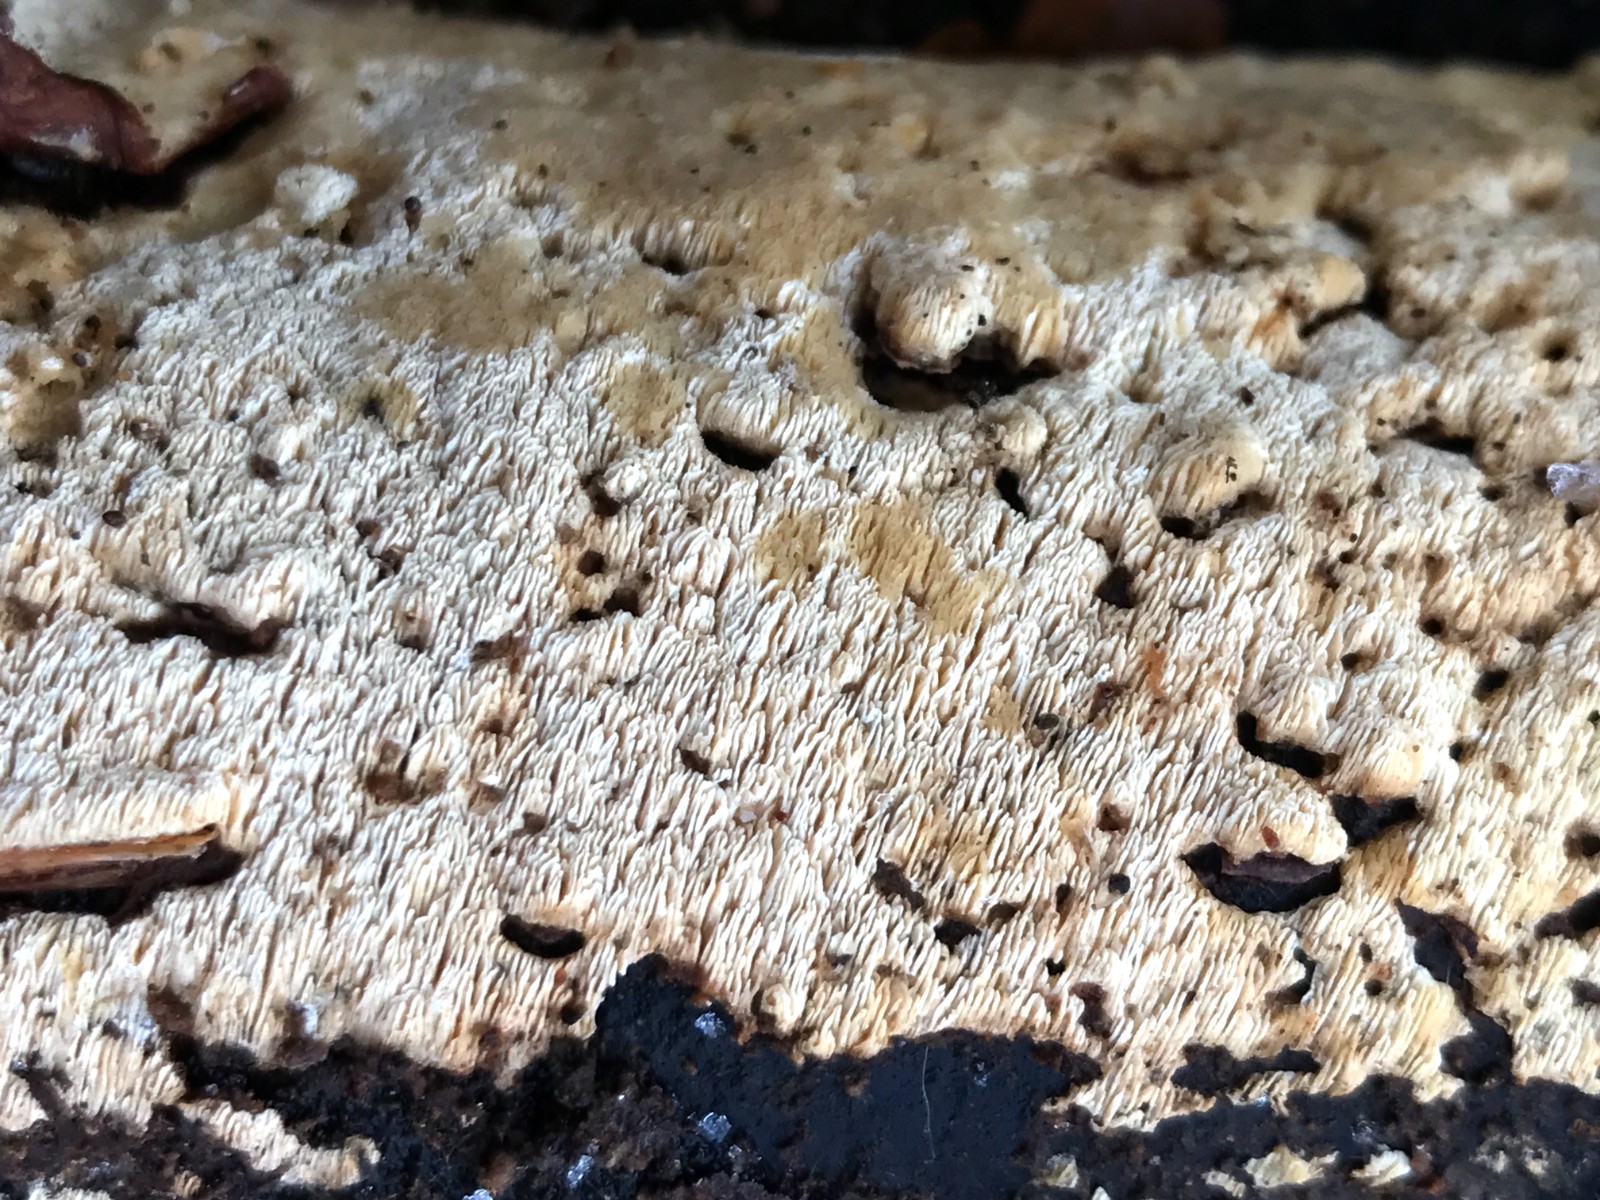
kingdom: Fungi
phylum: Basidiomycota
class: Agaricomycetes
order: Hymenochaetales
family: Schizoporaceae
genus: Xylodon
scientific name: Xylodon subtropicus
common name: labyrint-tandsvamp
